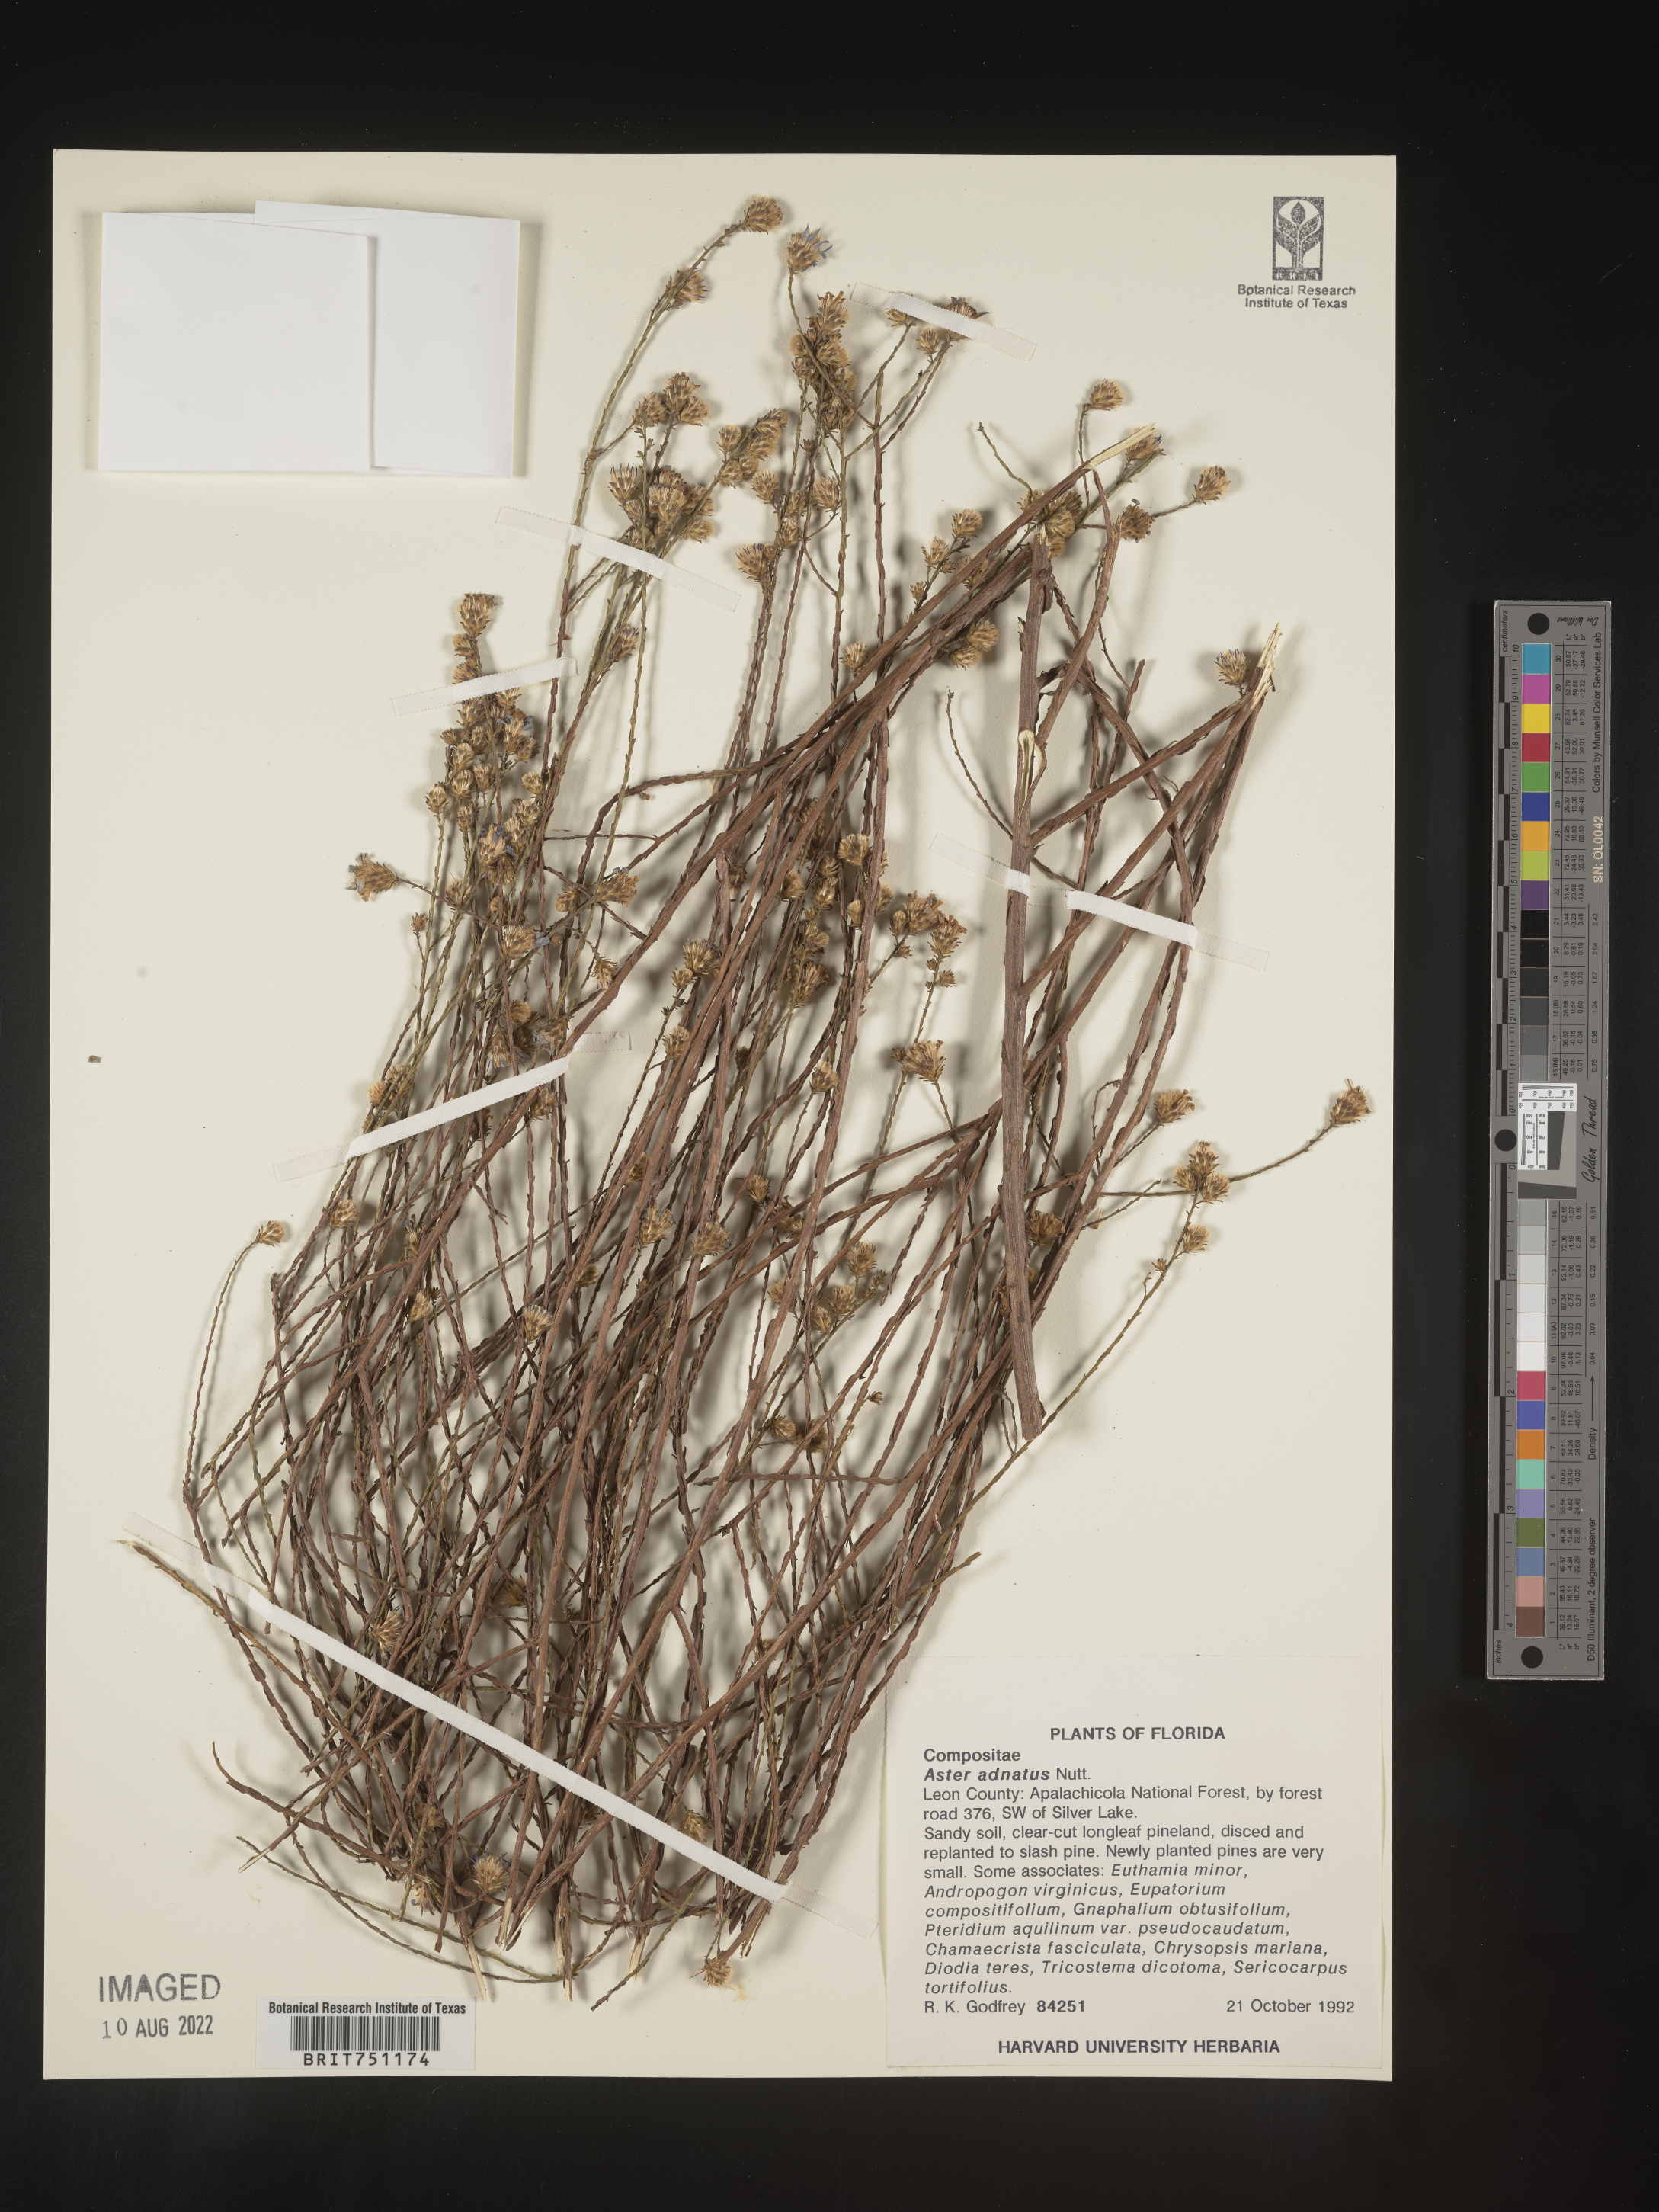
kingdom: Plantae
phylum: Tracheophyta
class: Magnoliopsida
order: Asterales
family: Asteraceae
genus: Symphyotrichum
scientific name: Symphyotrichum adnatum
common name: Scale-leaf aster
